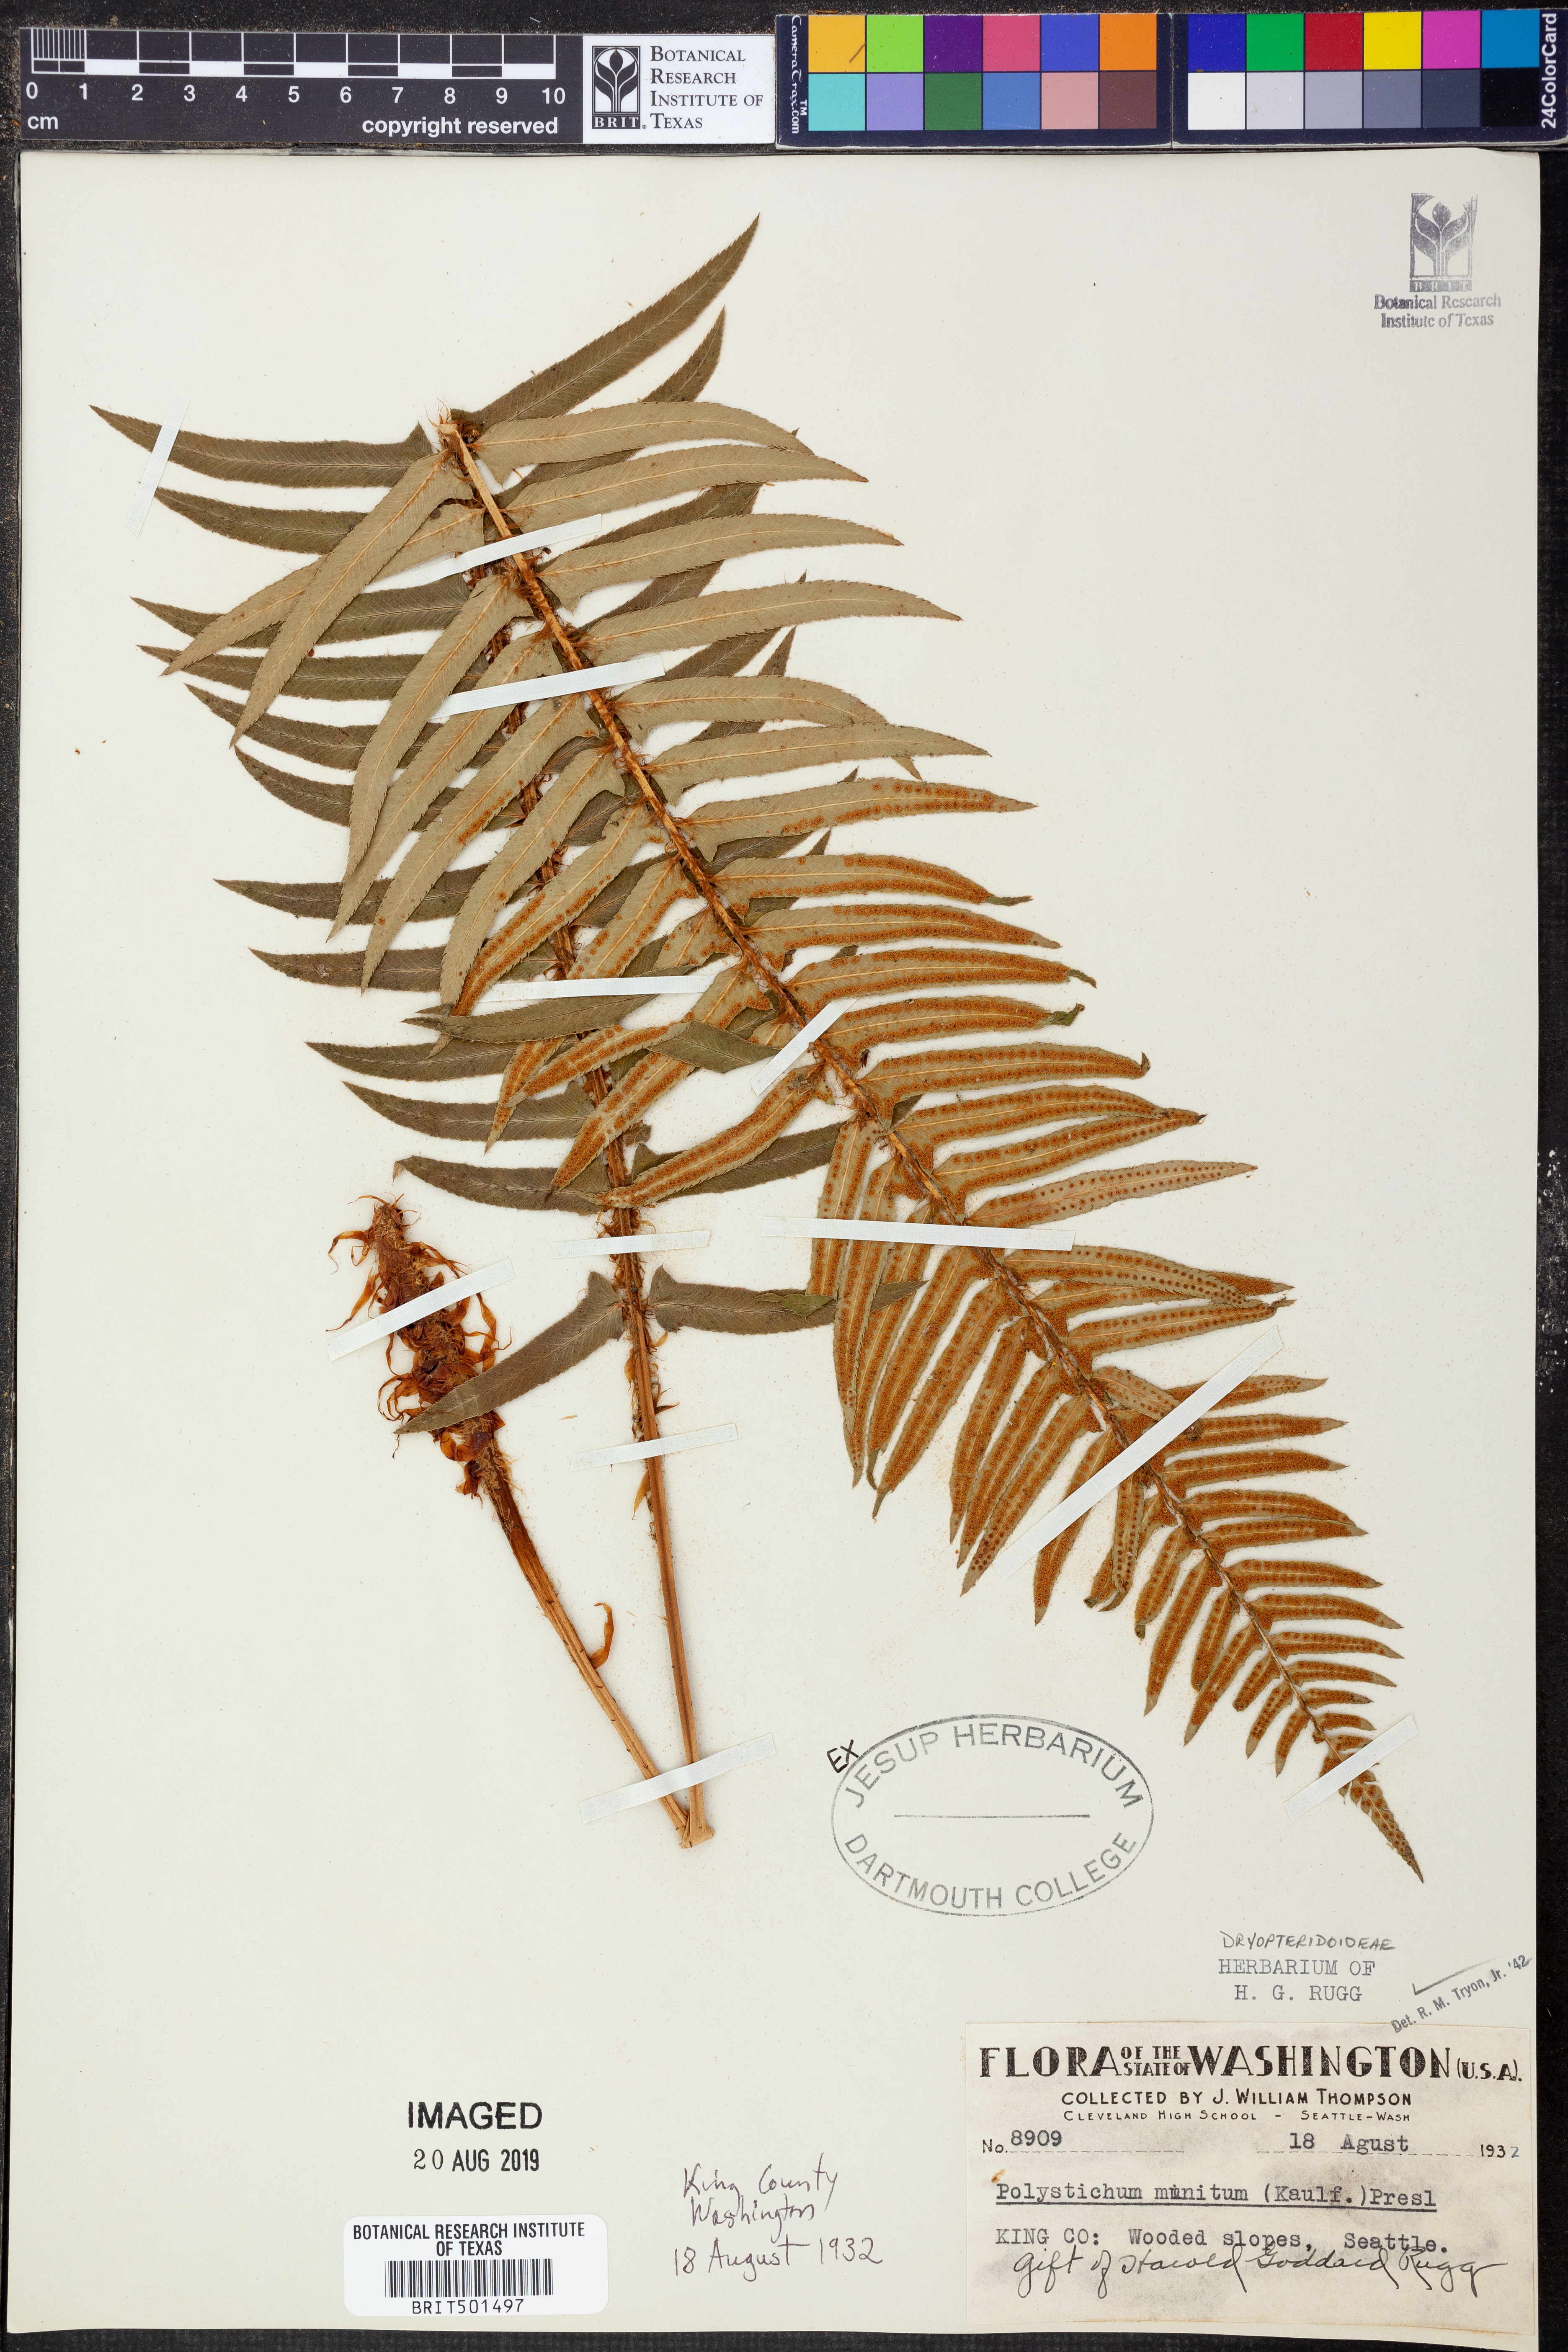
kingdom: Plantae
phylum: Tracheophyta
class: Polypodiopsida
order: Polypodiales
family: Dryopteridaceae
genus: Polystichum
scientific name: Polystichum munitum
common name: Western sword-fern
